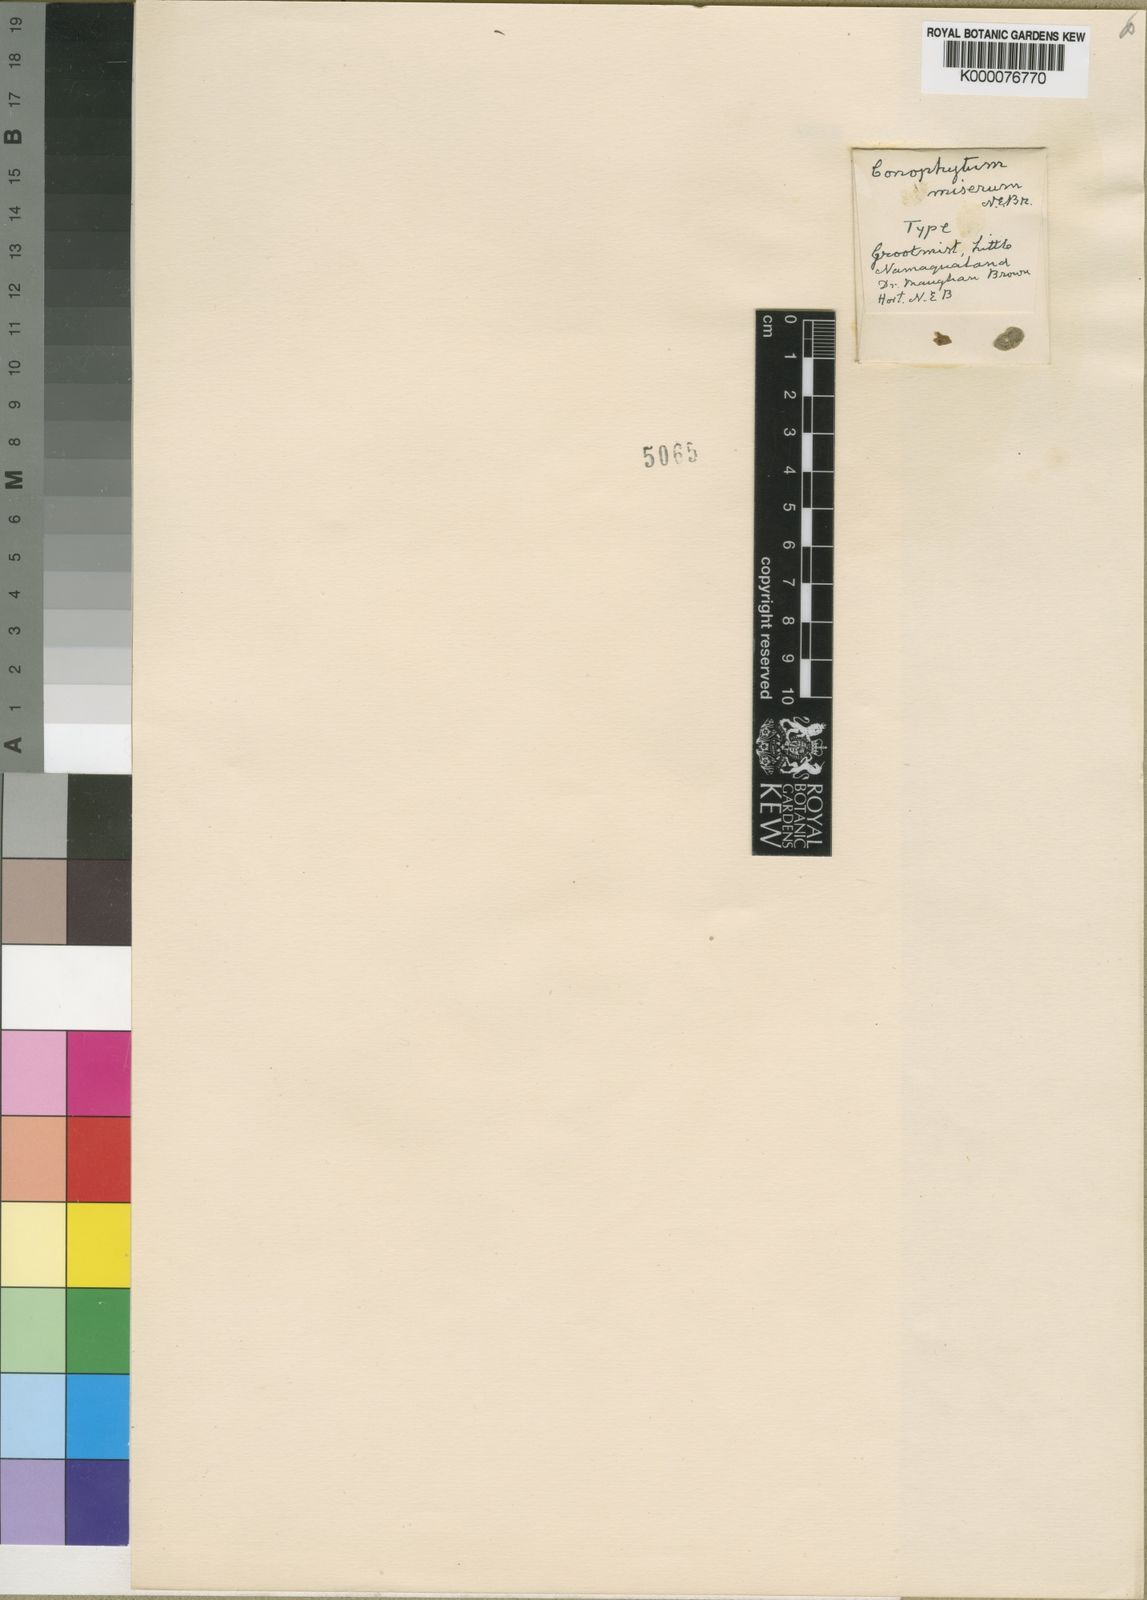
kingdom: Plantae
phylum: Tracheophyta
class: Magnoliopsida
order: Caryophyllales
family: Aizoaceae
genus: Conophytum
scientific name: Conophytum quaesitum
